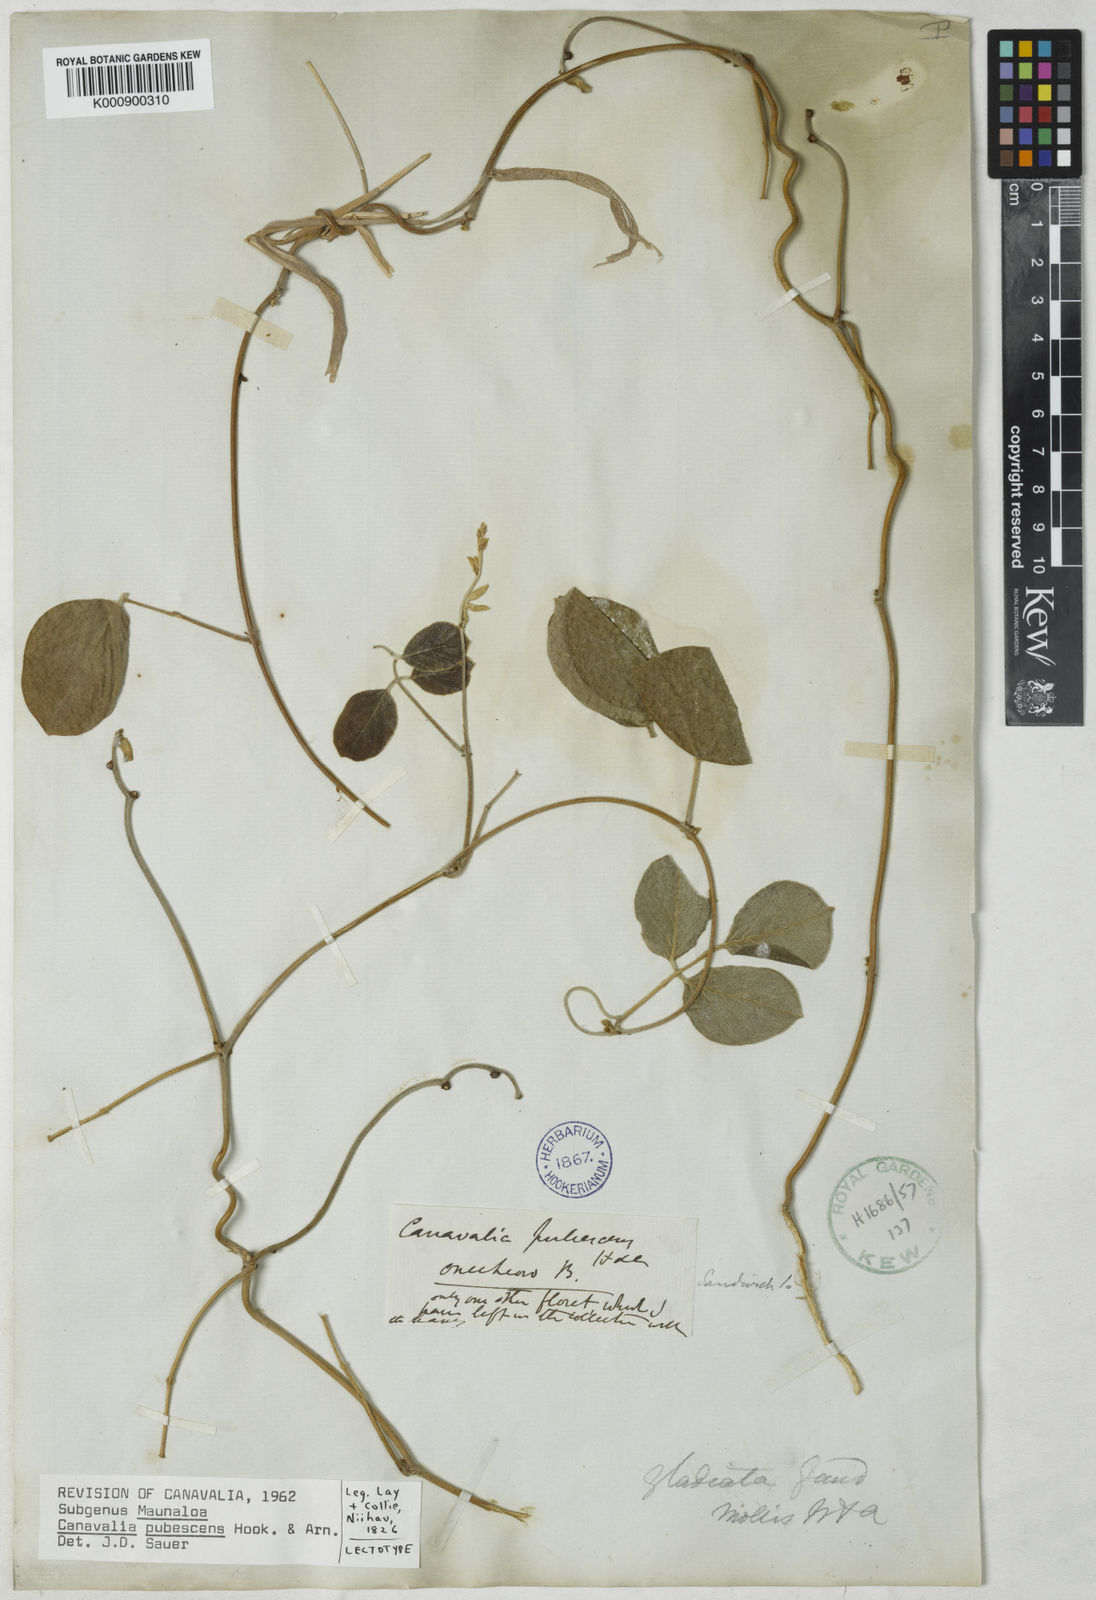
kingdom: Plantae
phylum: Tracheophyta
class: Magnoliopsida
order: Fabales
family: Fabaceae
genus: Canavalia
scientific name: Canavalia pubescens
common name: Jack bean
